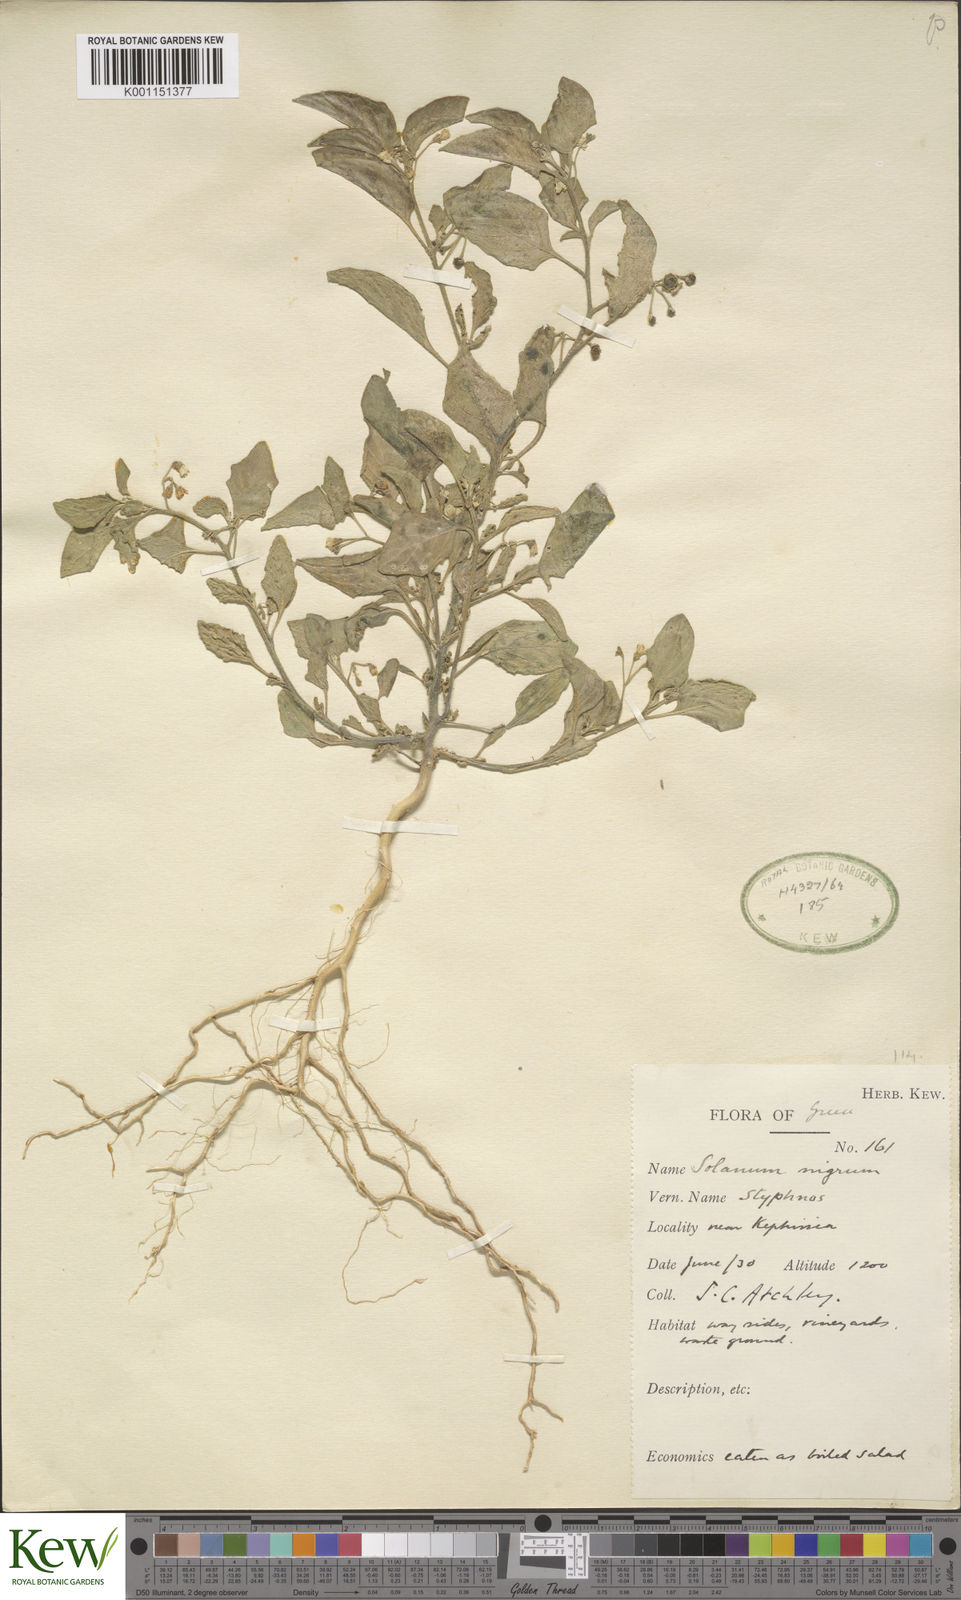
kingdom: Plantae
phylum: Tracheophyta
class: Magnoliopsida
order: Solanales
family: Solanaceae
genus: Solanum
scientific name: Solanum nigrum
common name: Black nightshade
